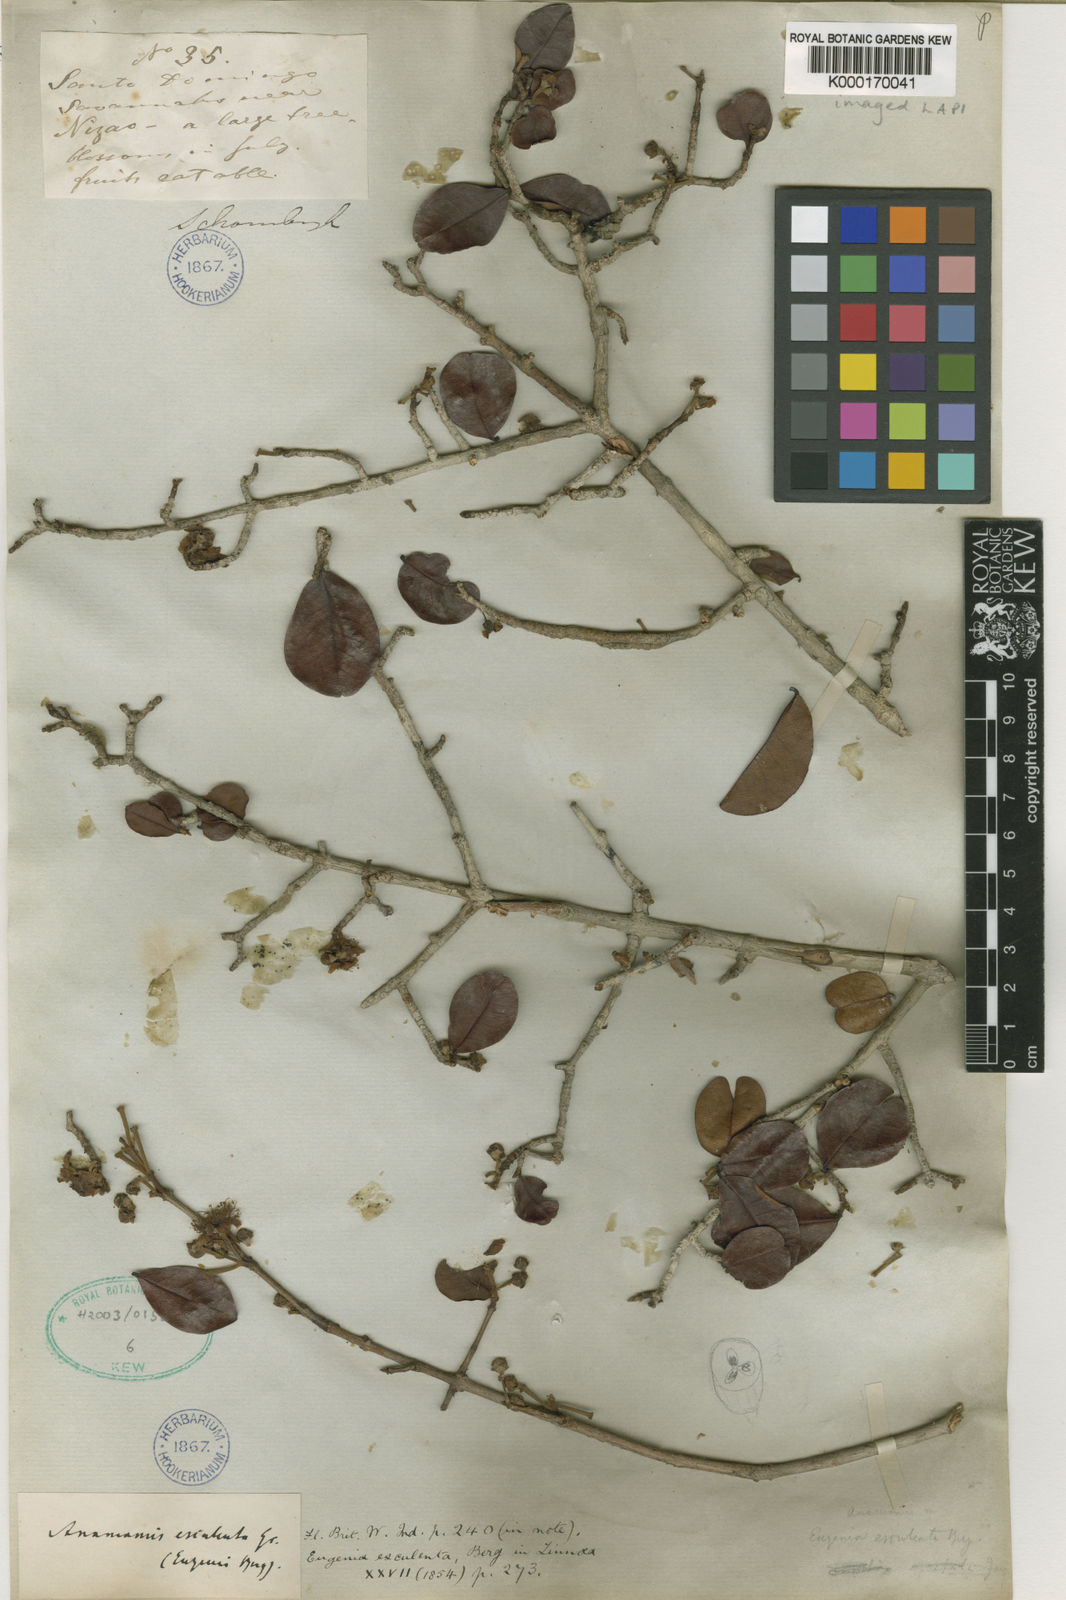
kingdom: Plantae
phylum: Tracheophyta
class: Magnoliopsida
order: Myrtales
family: Myrtaceae
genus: Pseudanamomis
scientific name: Pseudanamomis umbellulifera
